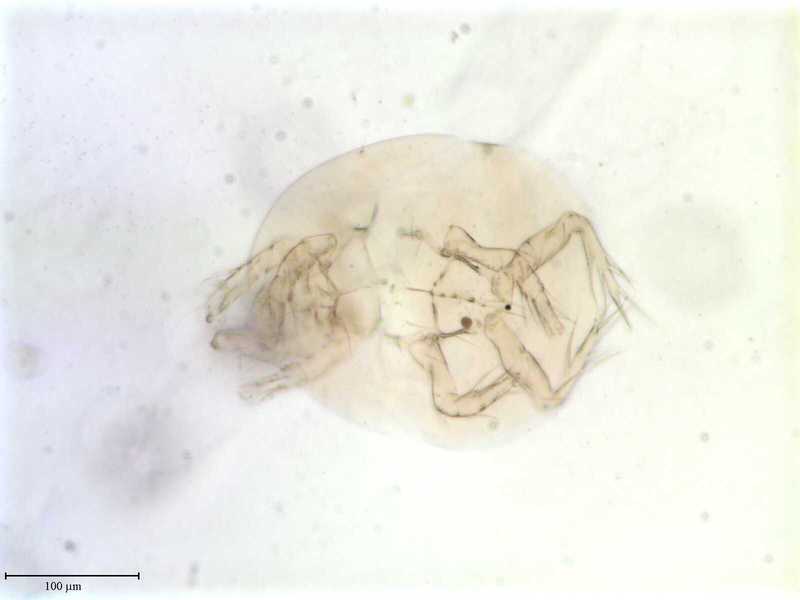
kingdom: Animalia
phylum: Arthropoda
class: Arachnida
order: Trombidiformes
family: Scutacaridae
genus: Scutacarus
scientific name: Scutacarus
